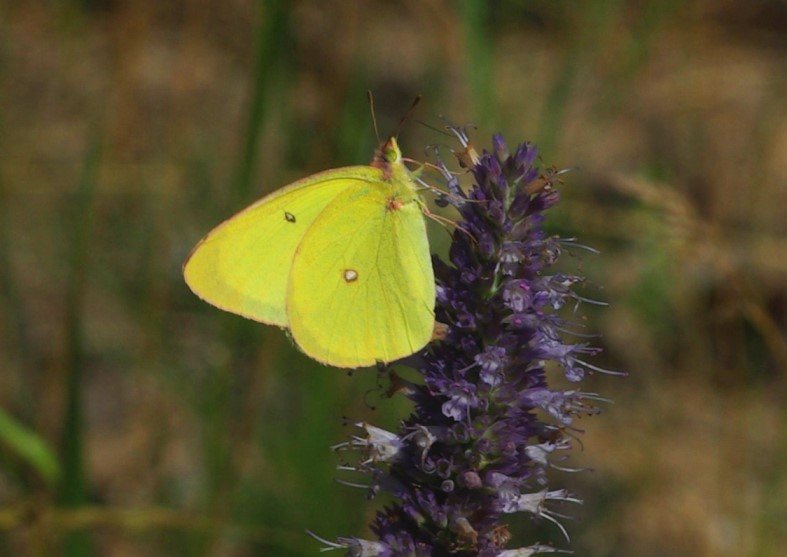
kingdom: Animalia
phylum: Arthropoda
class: Insecta
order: Lepidoptera
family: Pieridae
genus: Colias
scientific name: Colias interior
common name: Pink-edged Sulphur
